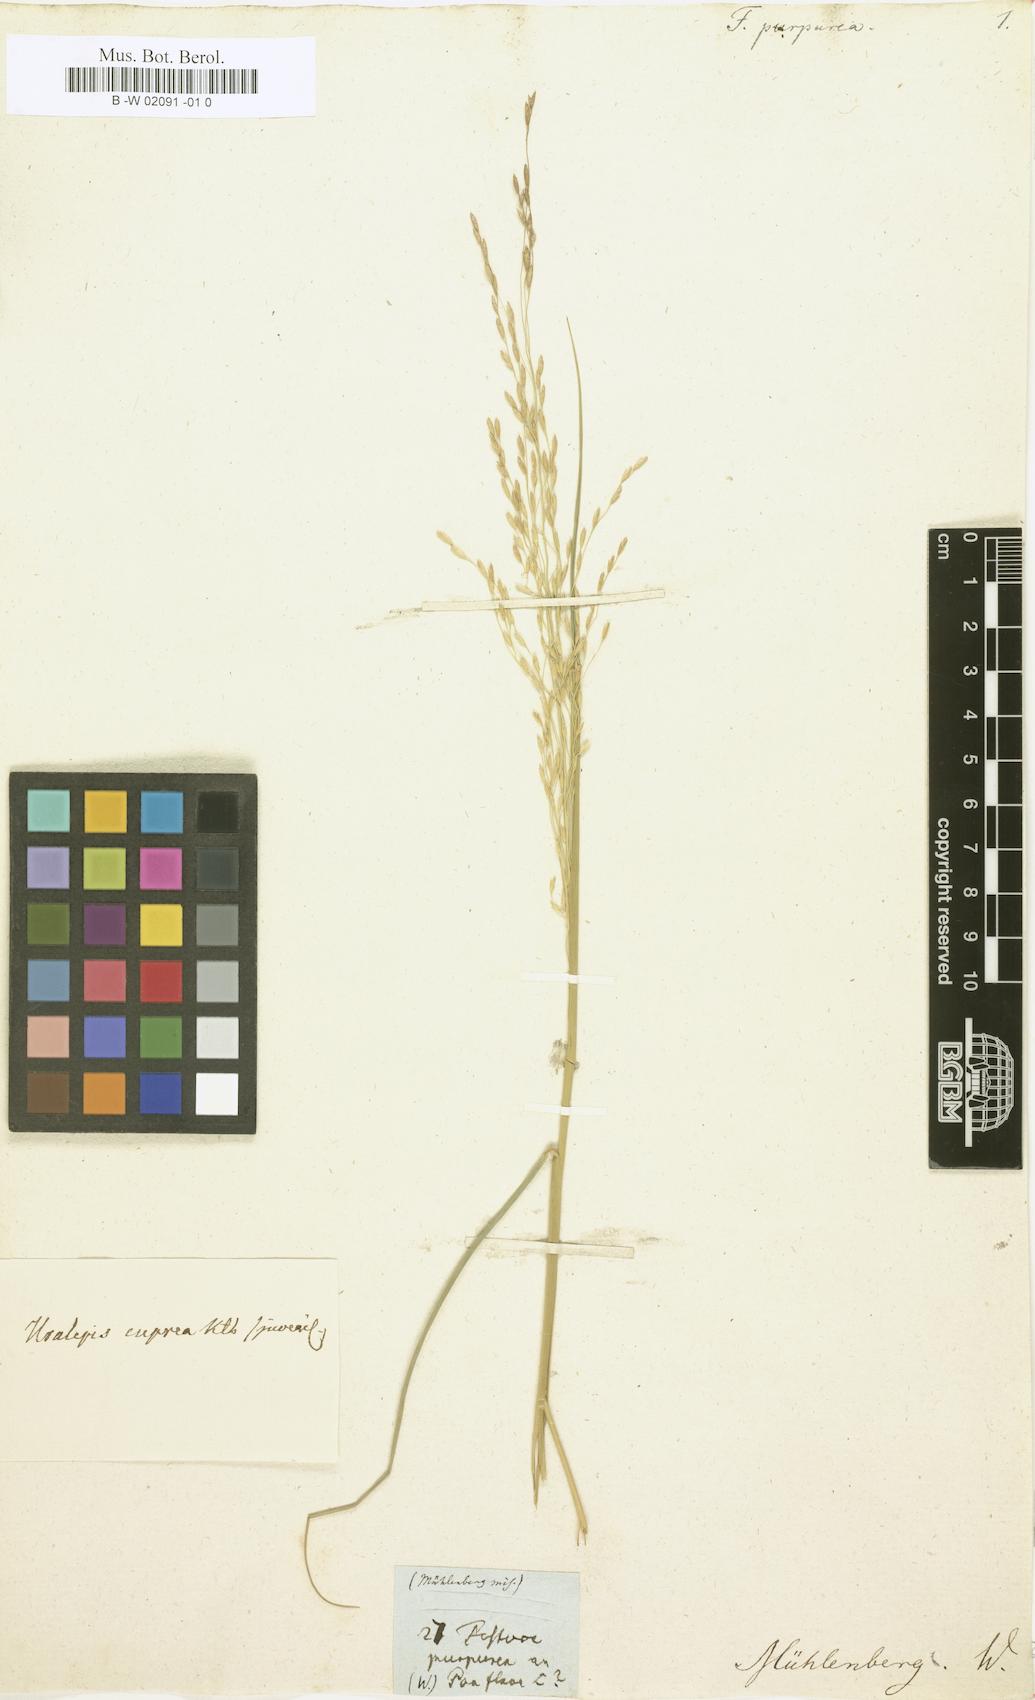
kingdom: Plantae
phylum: Tracheophyta
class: Liliopsida
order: Poales
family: Poaceae
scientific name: Poaceae
